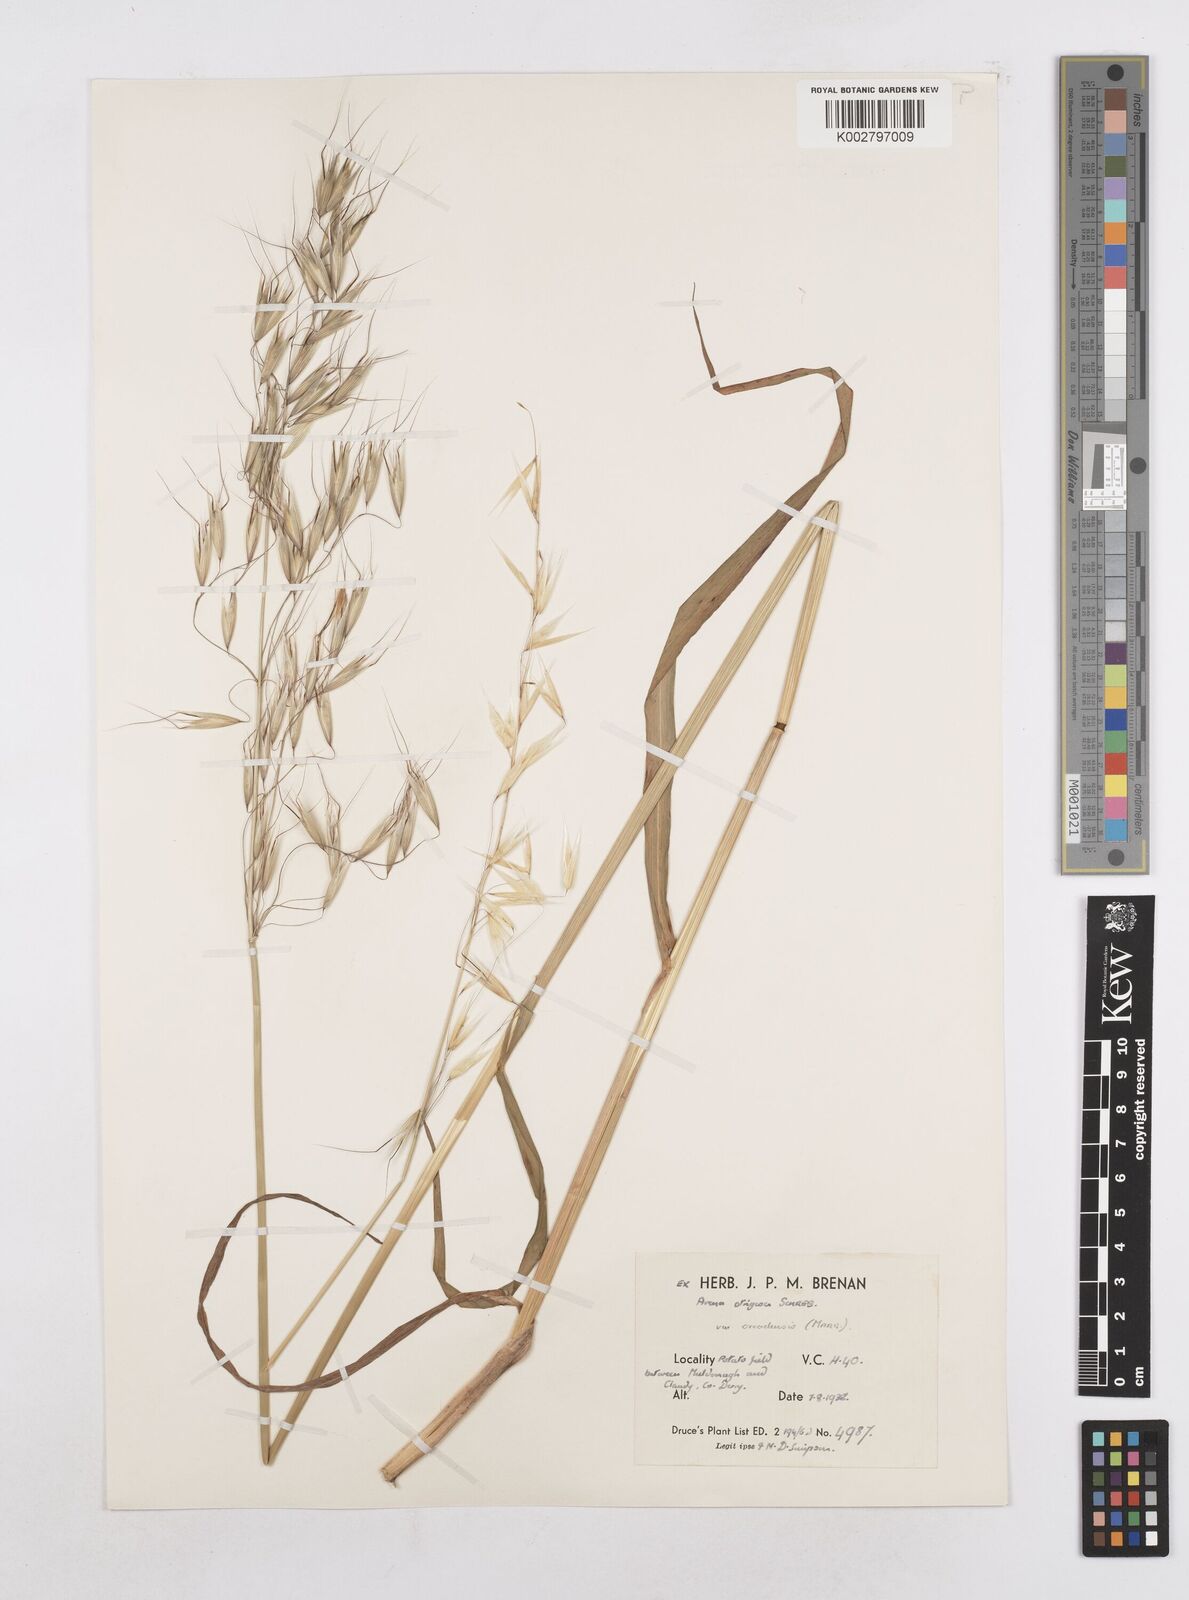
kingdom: Plantae
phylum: Tracheophyta
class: Liliopsida
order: Poales
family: Poaceae
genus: Avena
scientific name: Avena strigosa
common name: Bristle oat
